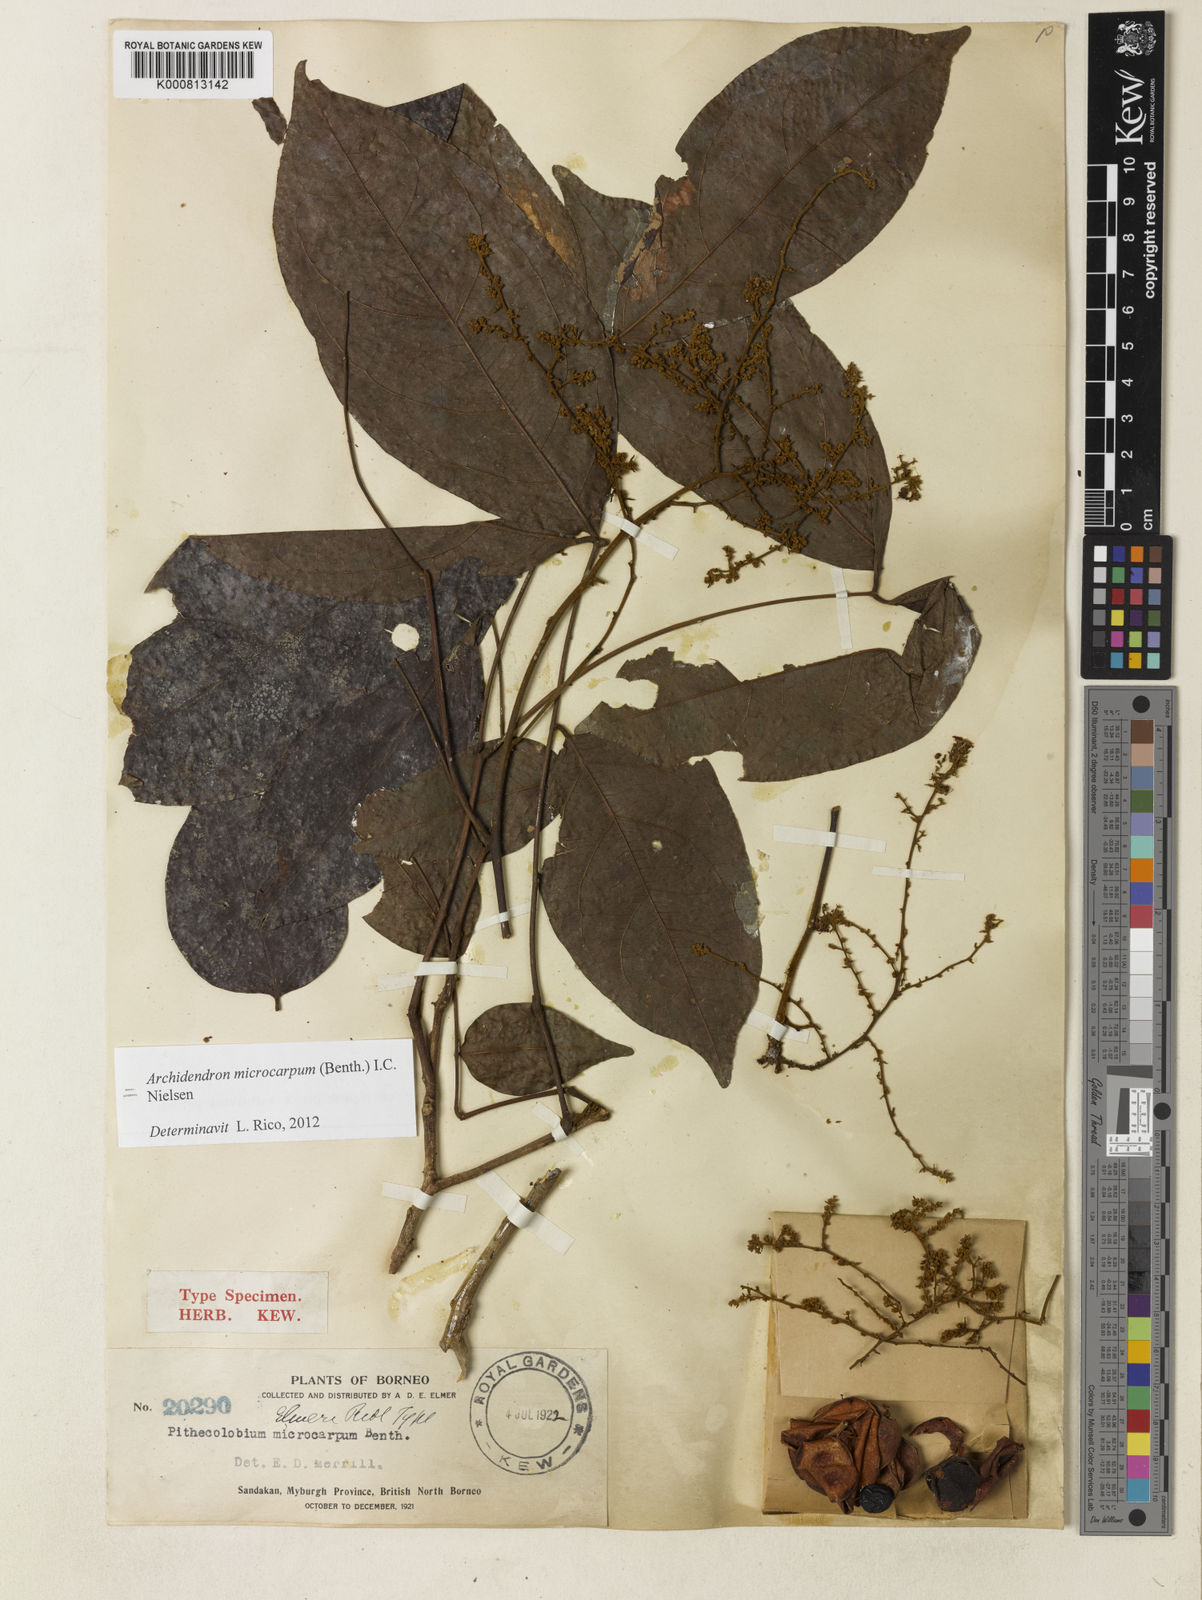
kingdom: Plantae
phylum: Tracheophyta
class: Magnoliopsida
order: Fabales
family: Fabaceae
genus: Archidendron
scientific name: Archidendron microcarpum
